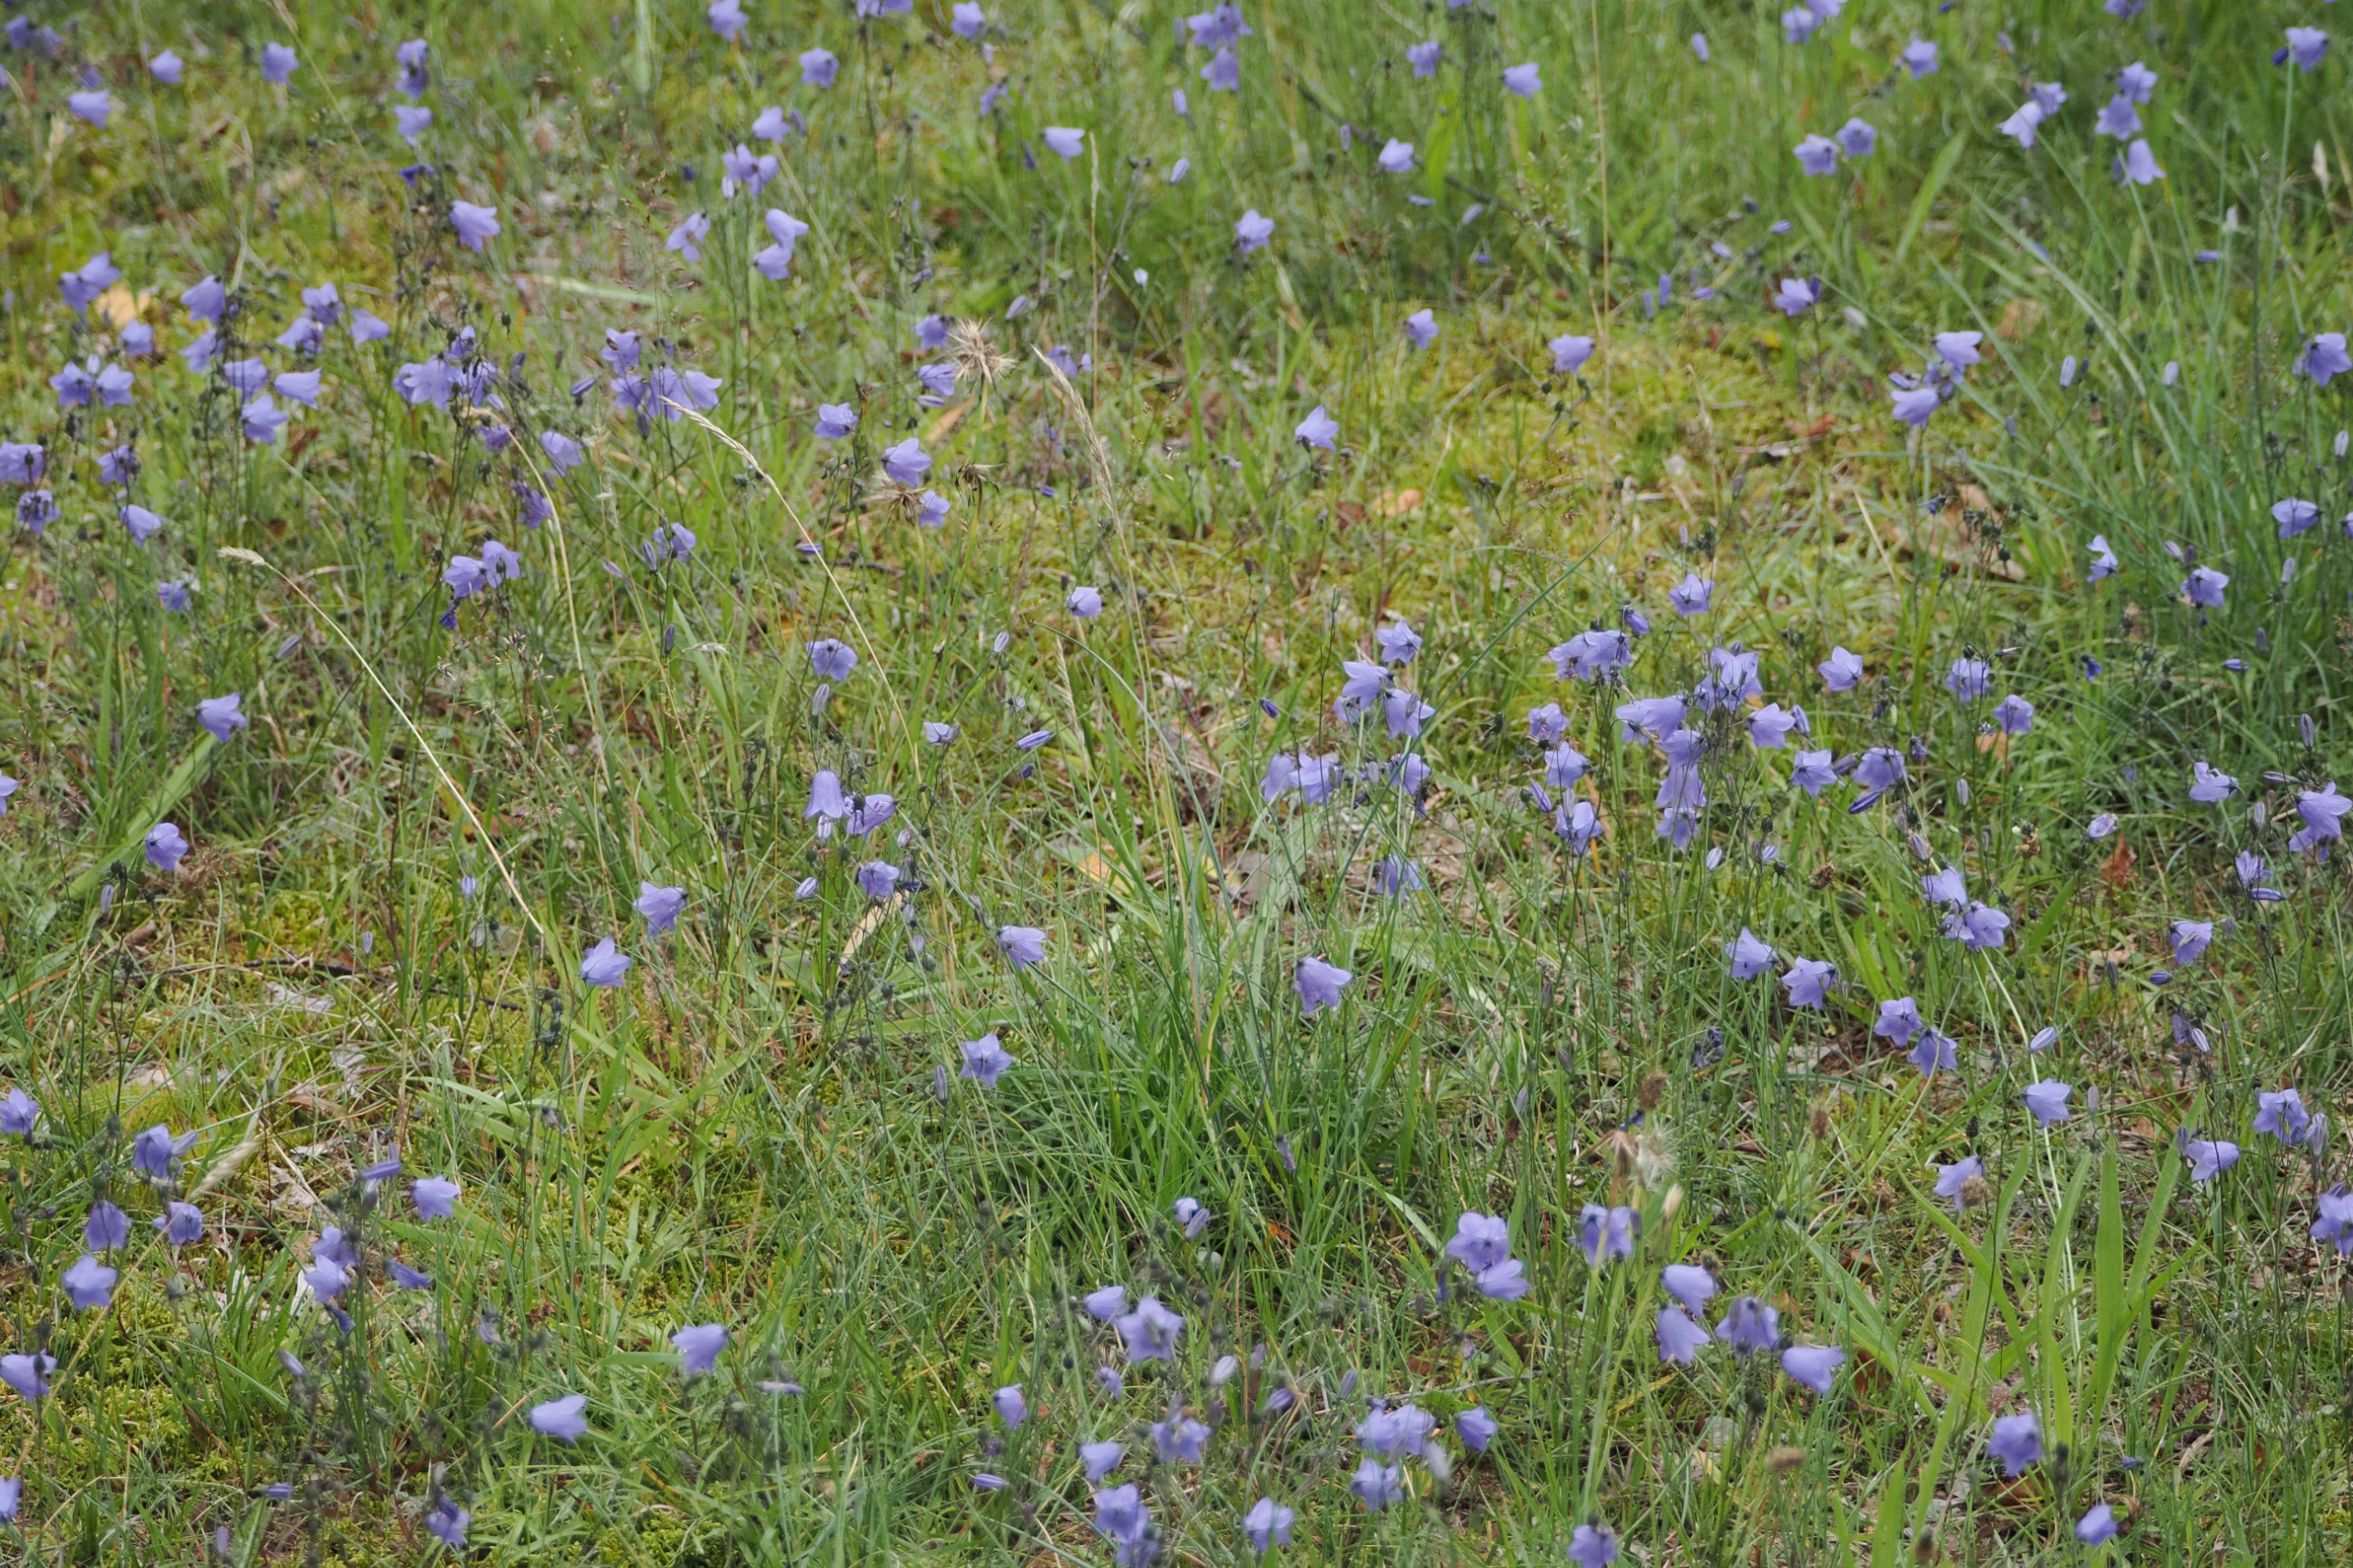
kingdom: Plantae
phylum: Tracheophyta
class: Magnoliopsida
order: Asterales
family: Campanulaceae
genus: Campanula
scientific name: Campanula rotundifolia
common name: Liden klokke
